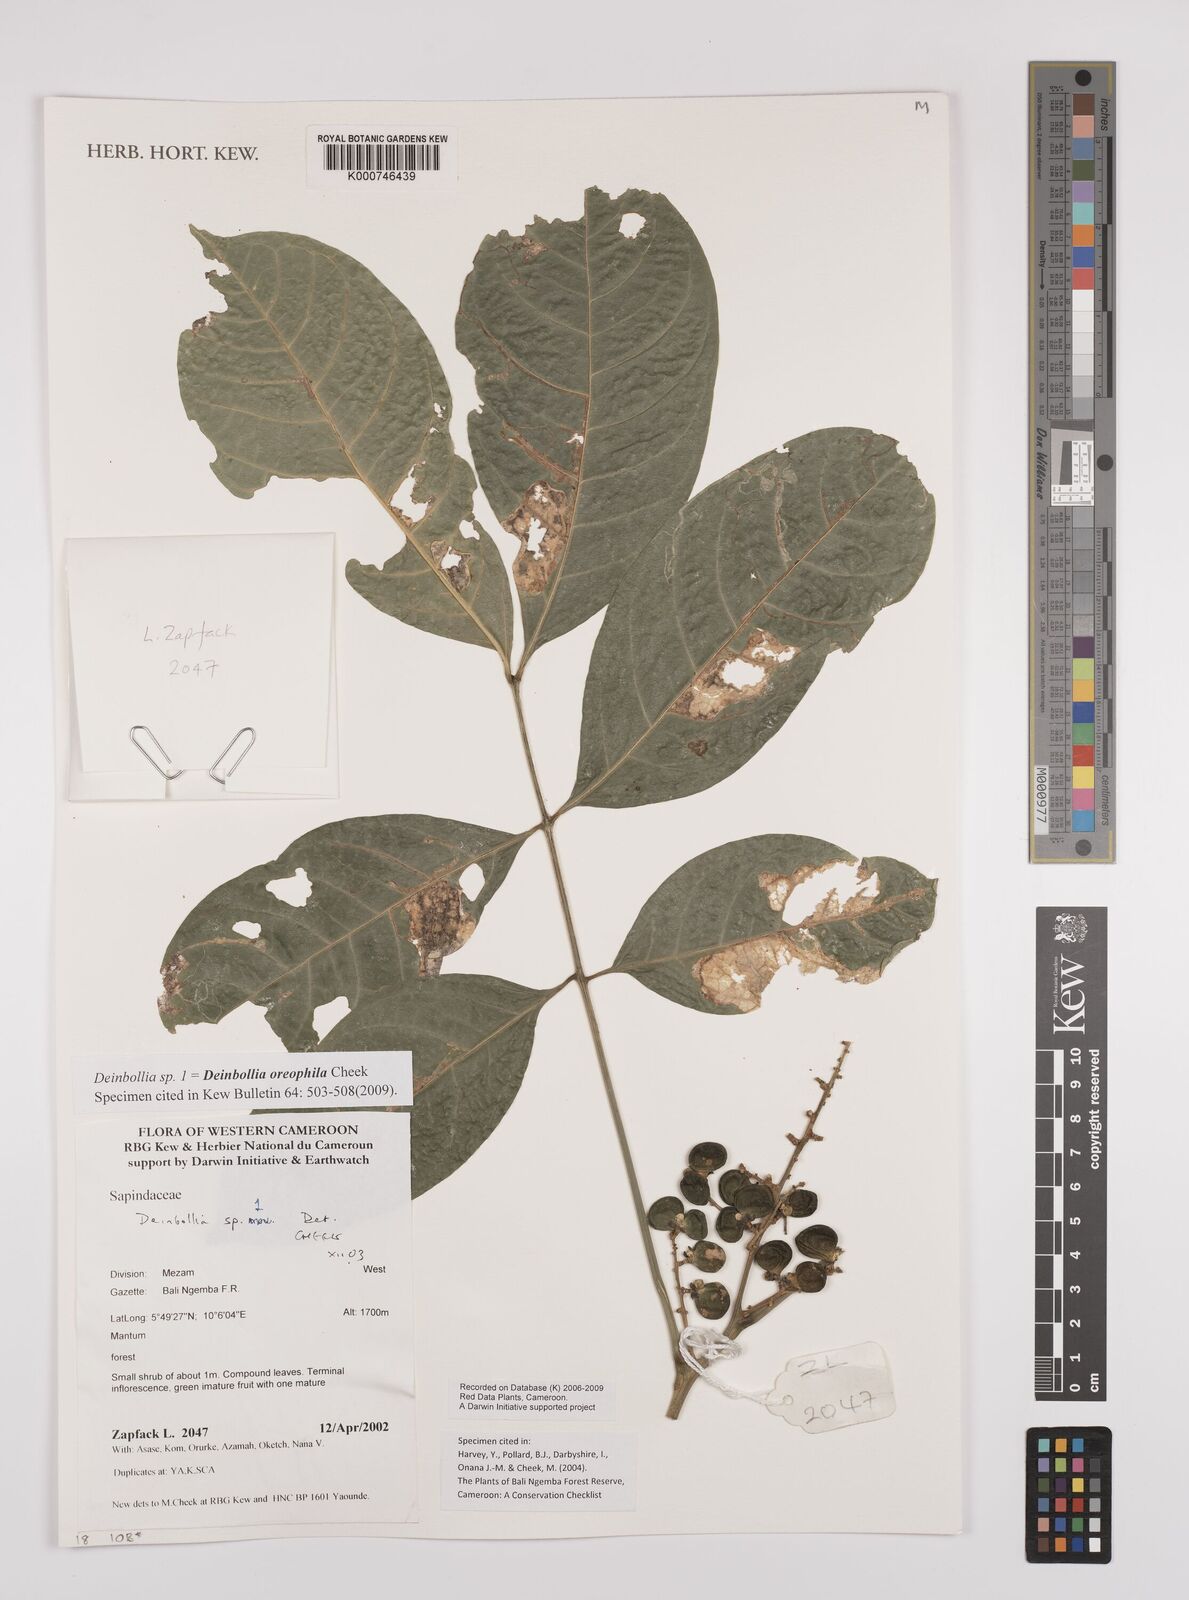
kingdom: Plantae
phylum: Tracheophyta
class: Magnoliopsida
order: Sapindales
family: Sapindaceae
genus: Deinbollia
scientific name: Deinbollia oreophila
